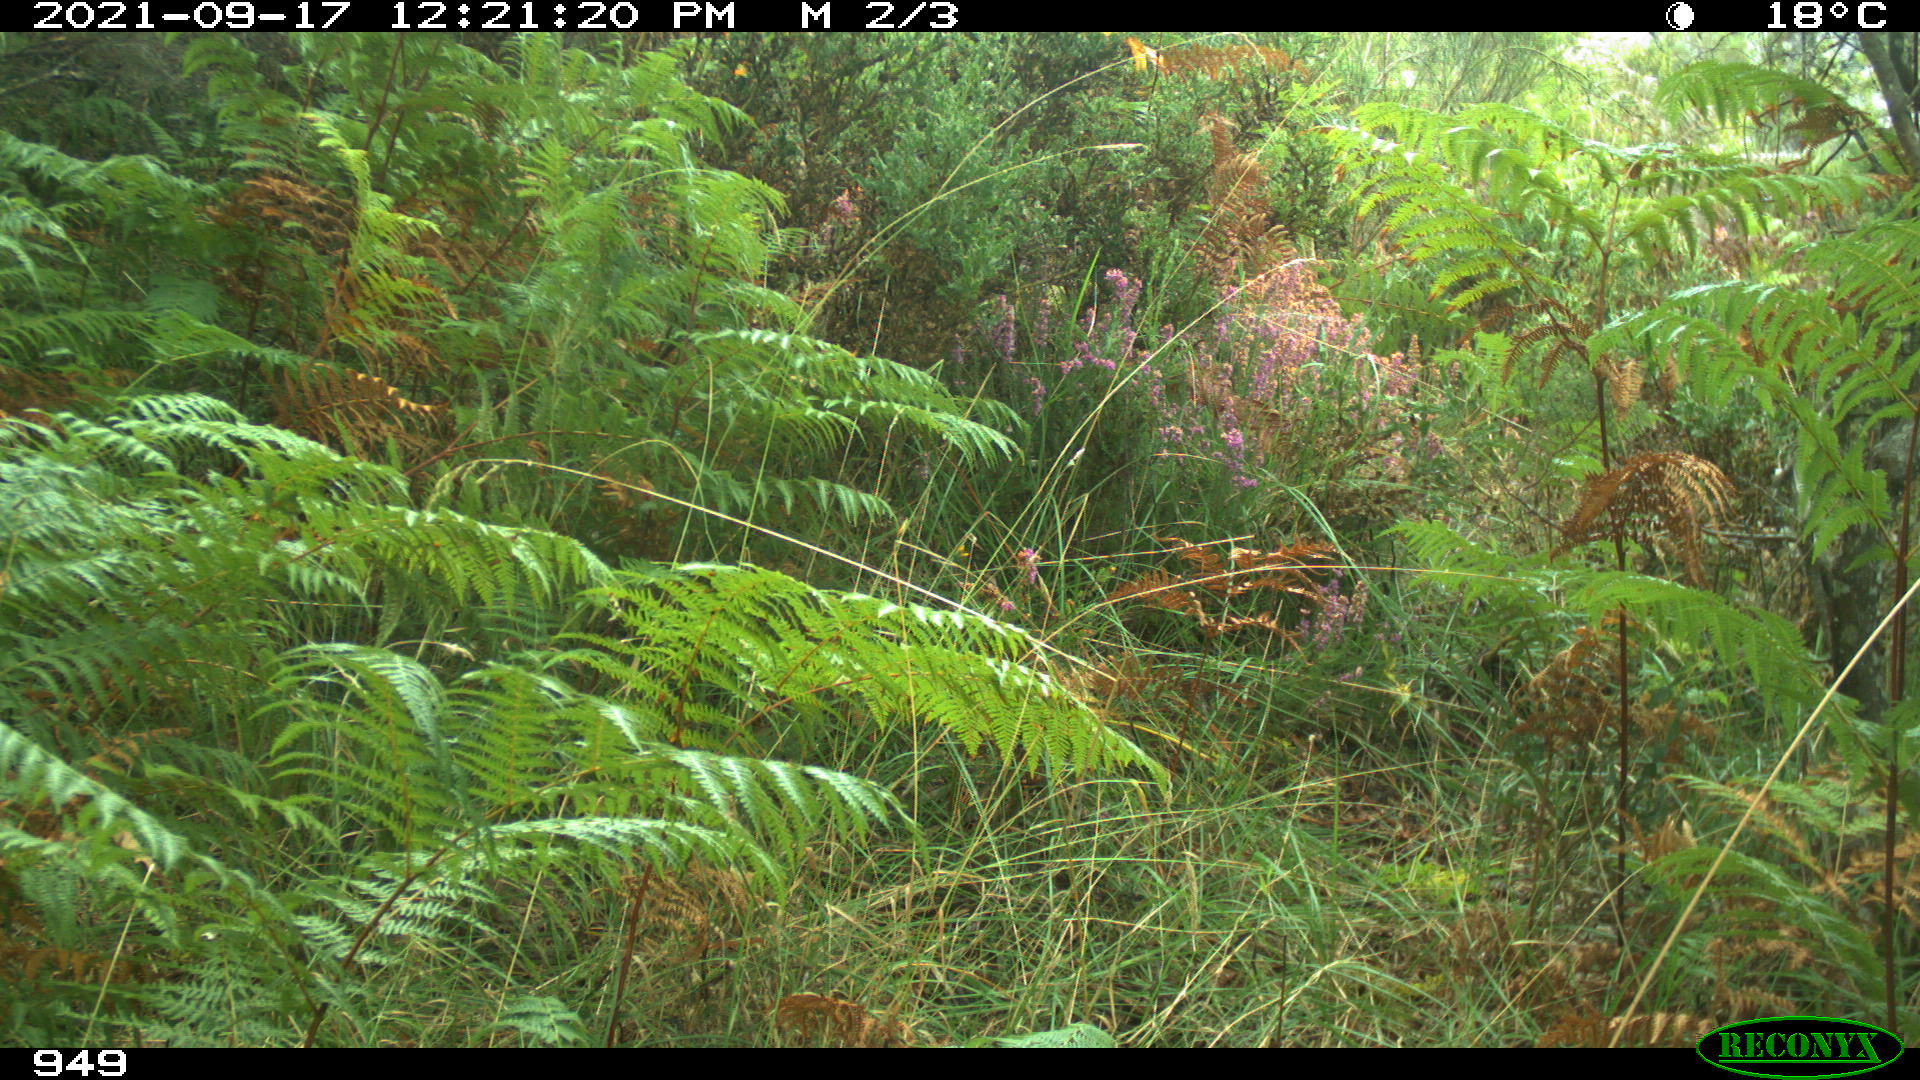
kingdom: Animalia
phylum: Chordata
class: Mammalia
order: Artiodactyla
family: Bovidae
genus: Bos
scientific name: Bos taurus
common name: Domesticated cattle
